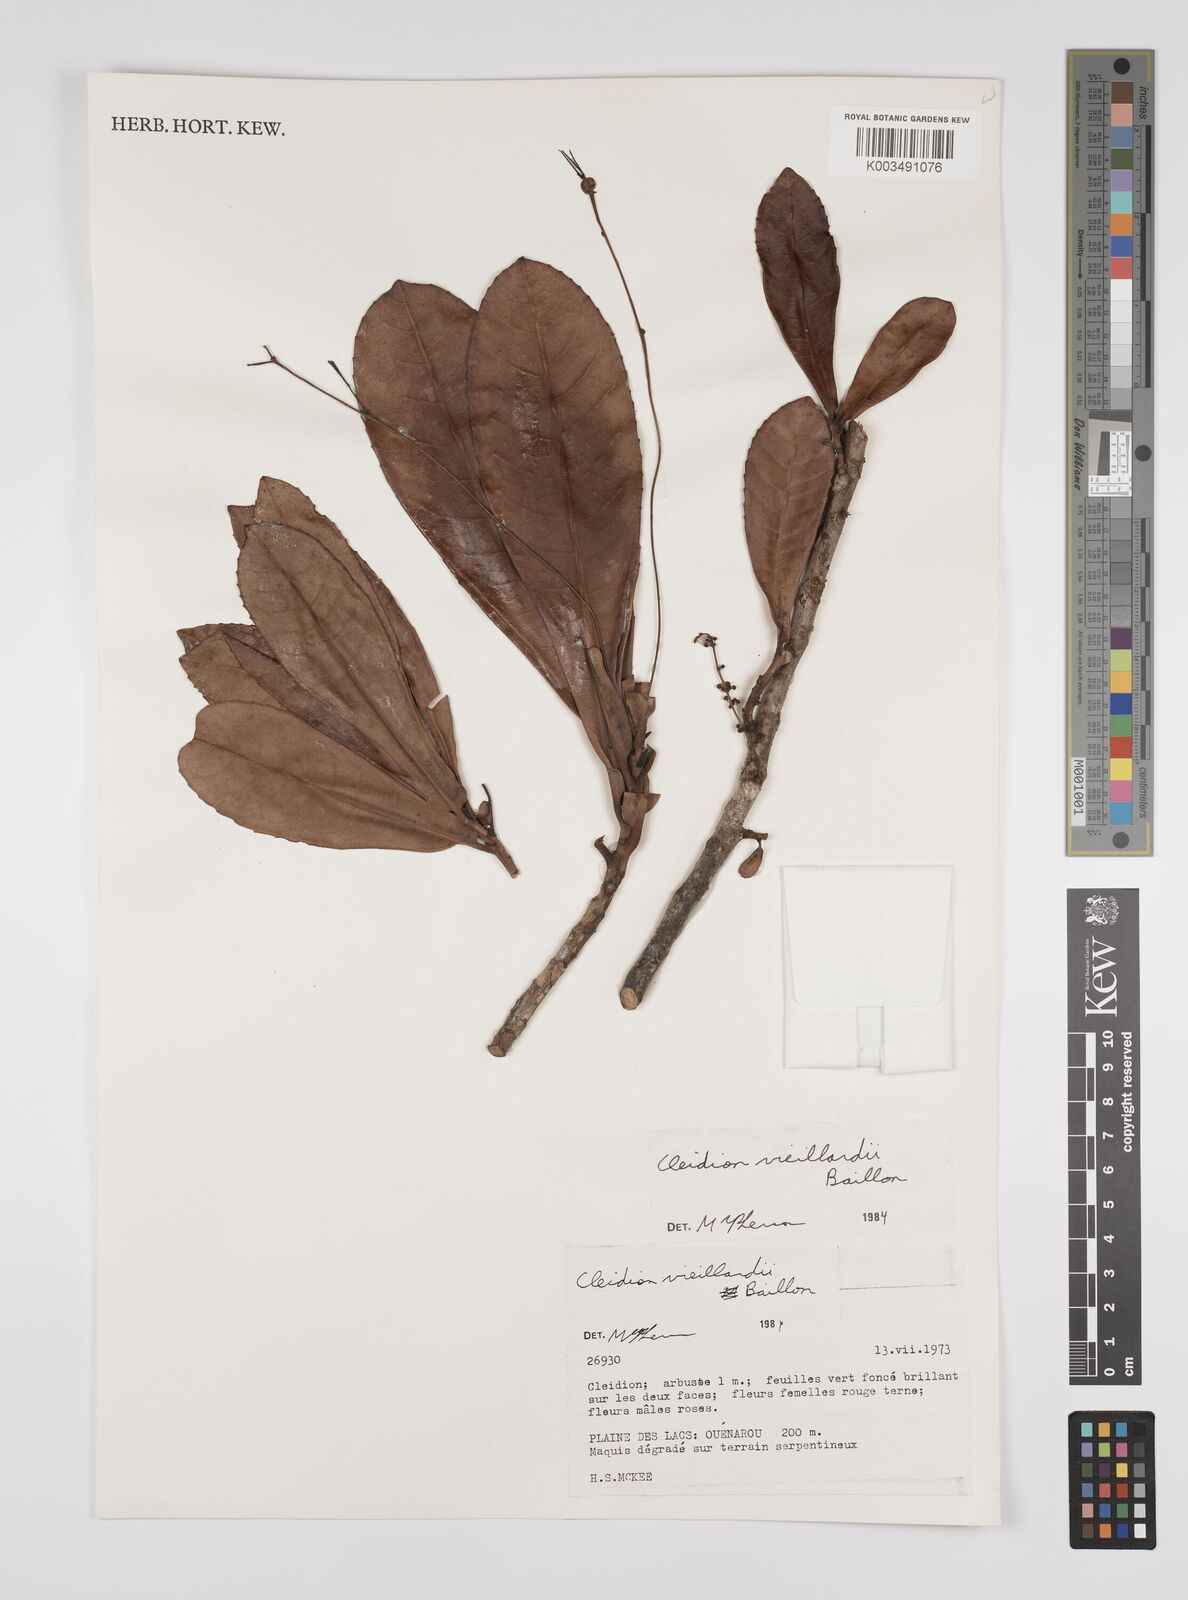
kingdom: Plantae
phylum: Tracheophyta
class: Magnoliopsida
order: Malpighiales
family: Euphorbiaceae
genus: Cleidion
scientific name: Cleidion vieillardii
